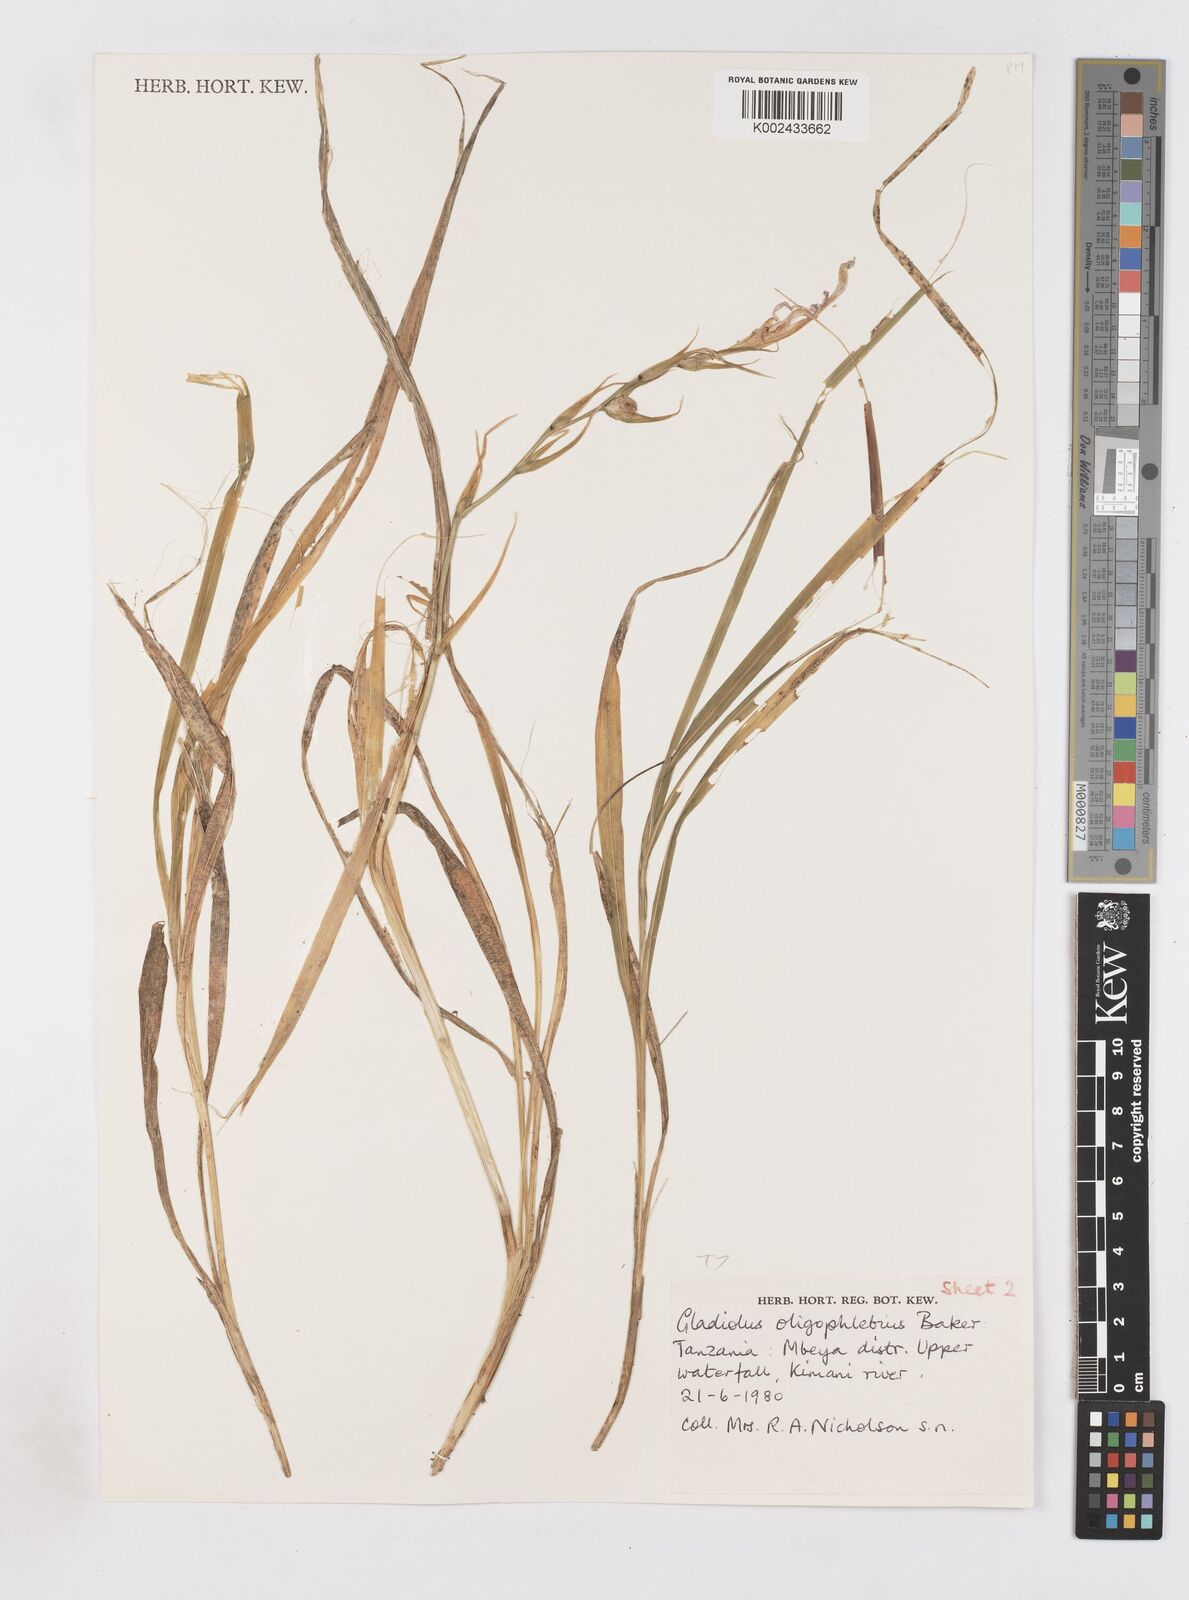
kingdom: Plantae
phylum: Tracheophyta
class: Liliopsida
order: Asparagales
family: Iridaceae
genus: Gladiolus
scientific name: Gladiolus oligophlebius
